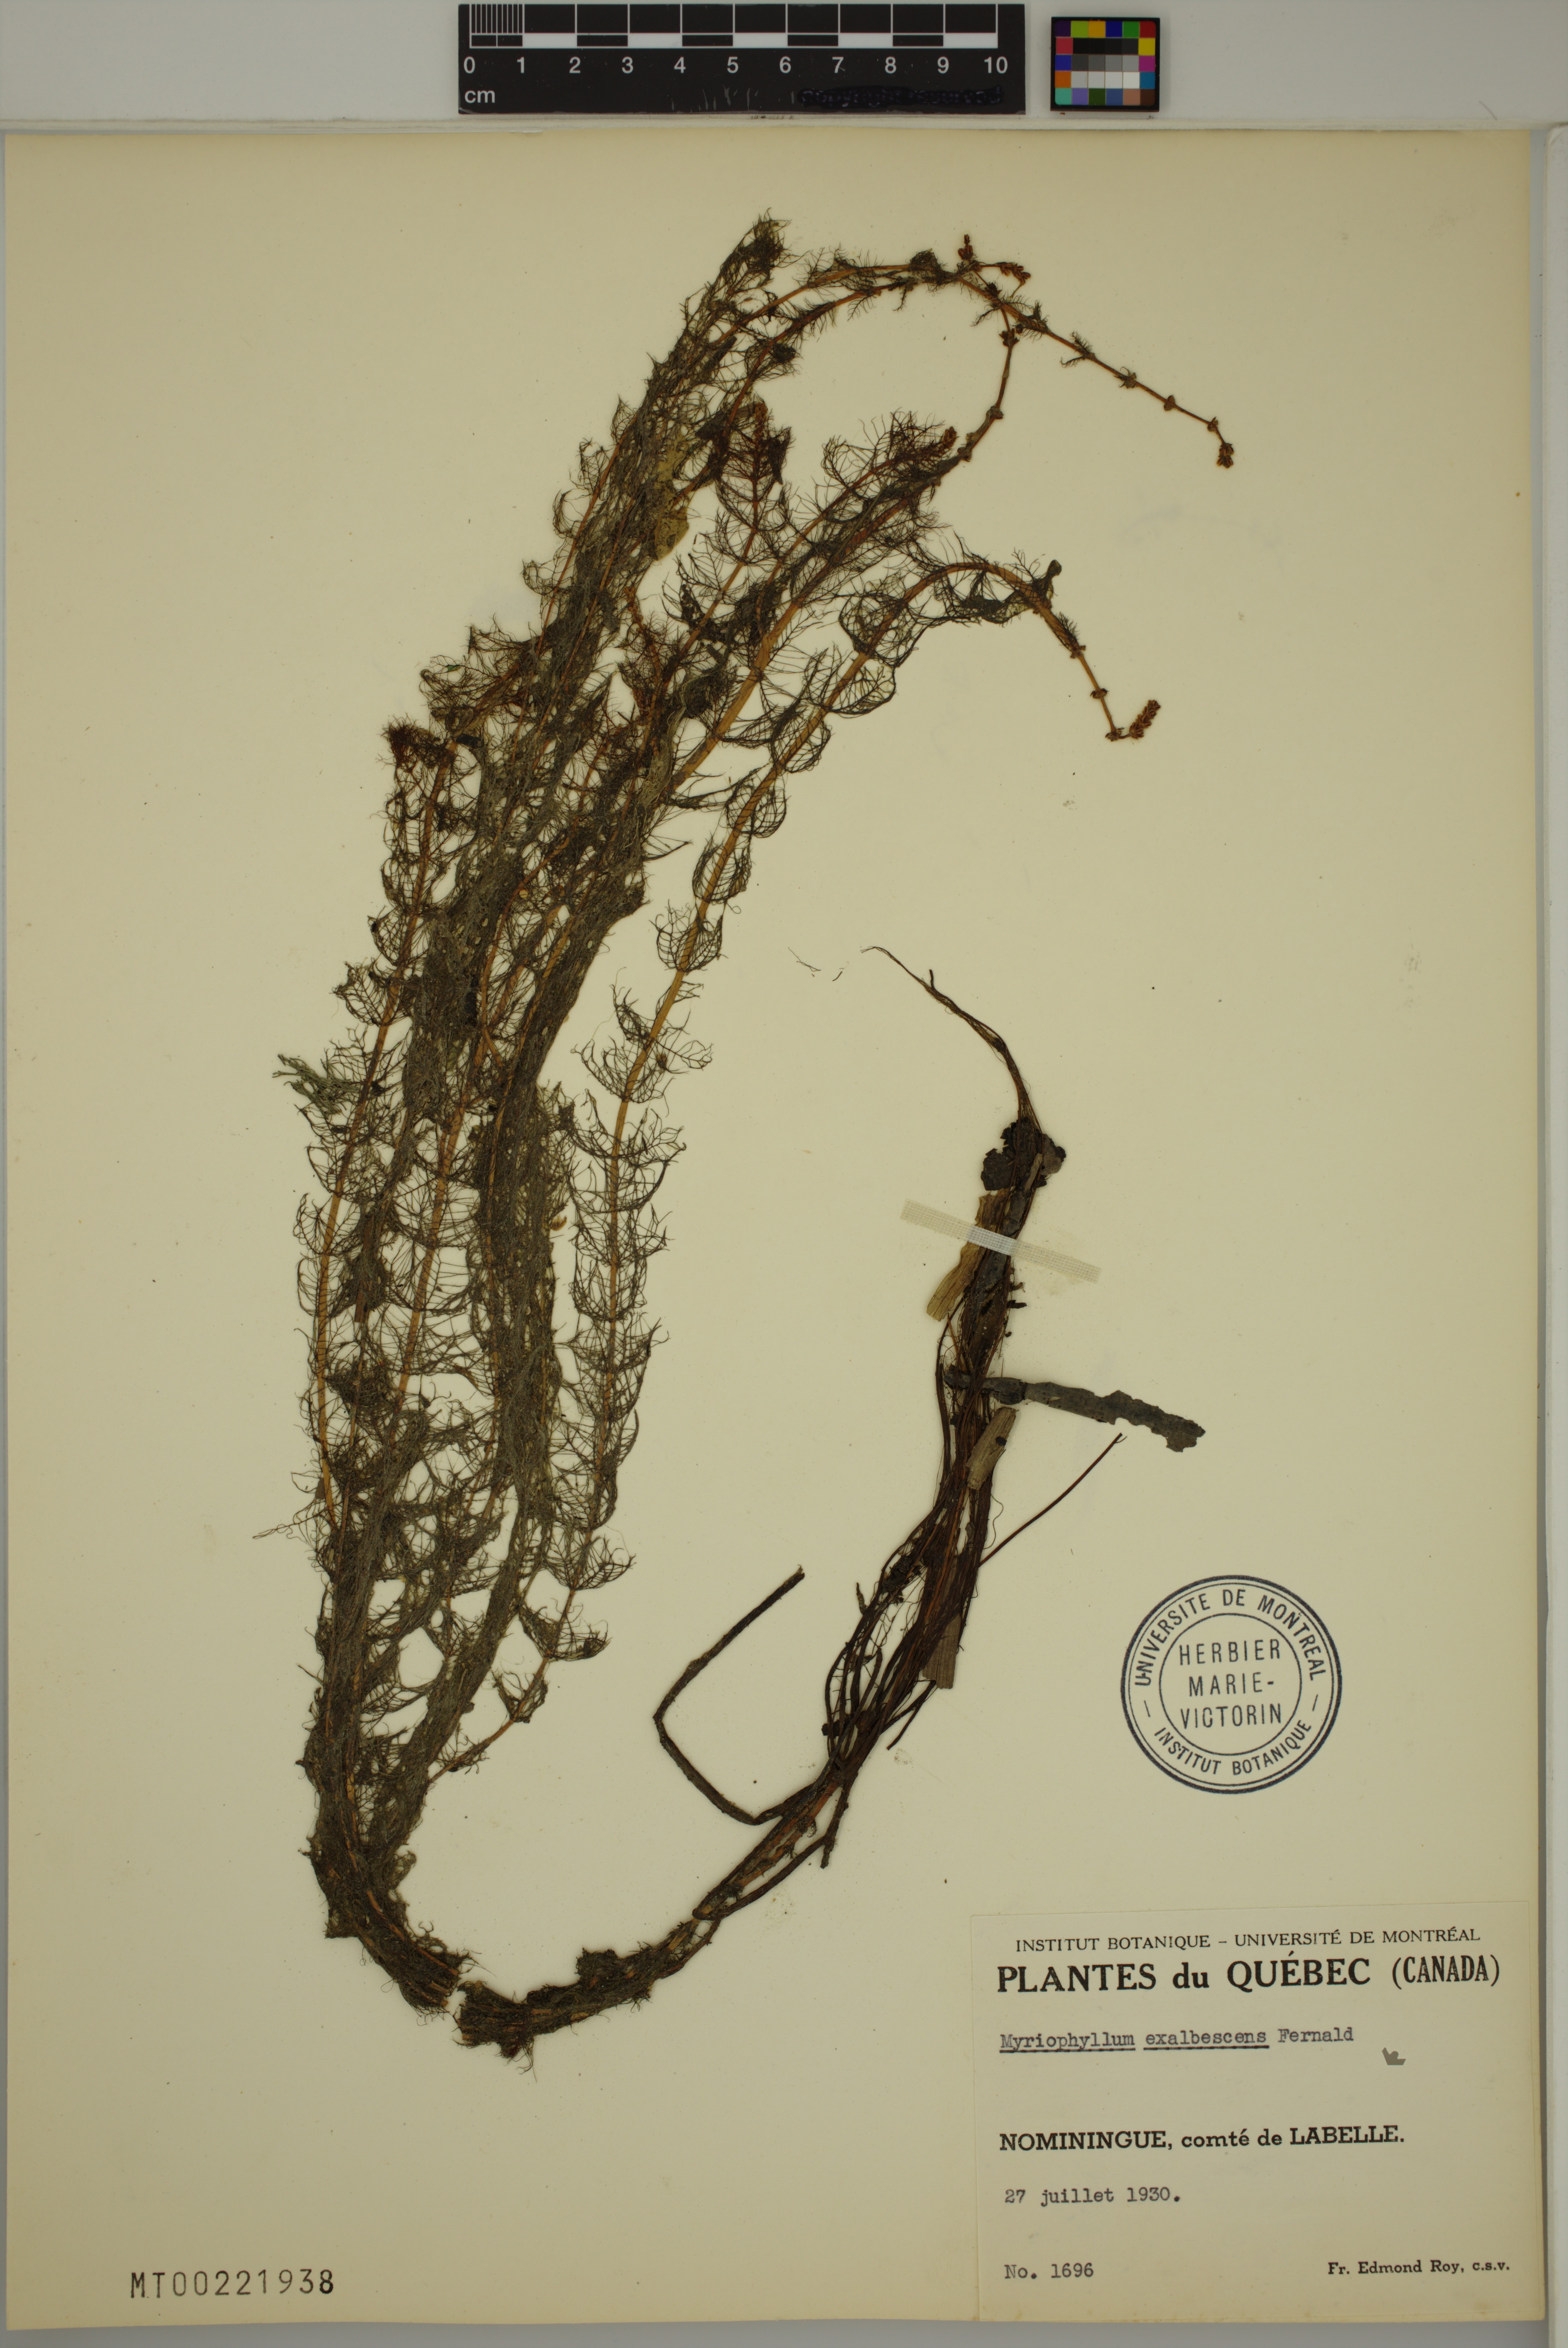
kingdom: Plantae
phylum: Tracheophyta
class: Magnoliopsida
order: Saxifragales
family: Haloragaceae
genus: Myriophyllum
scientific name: Myriophyllum sibiricum
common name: Siberian water-milfoil
